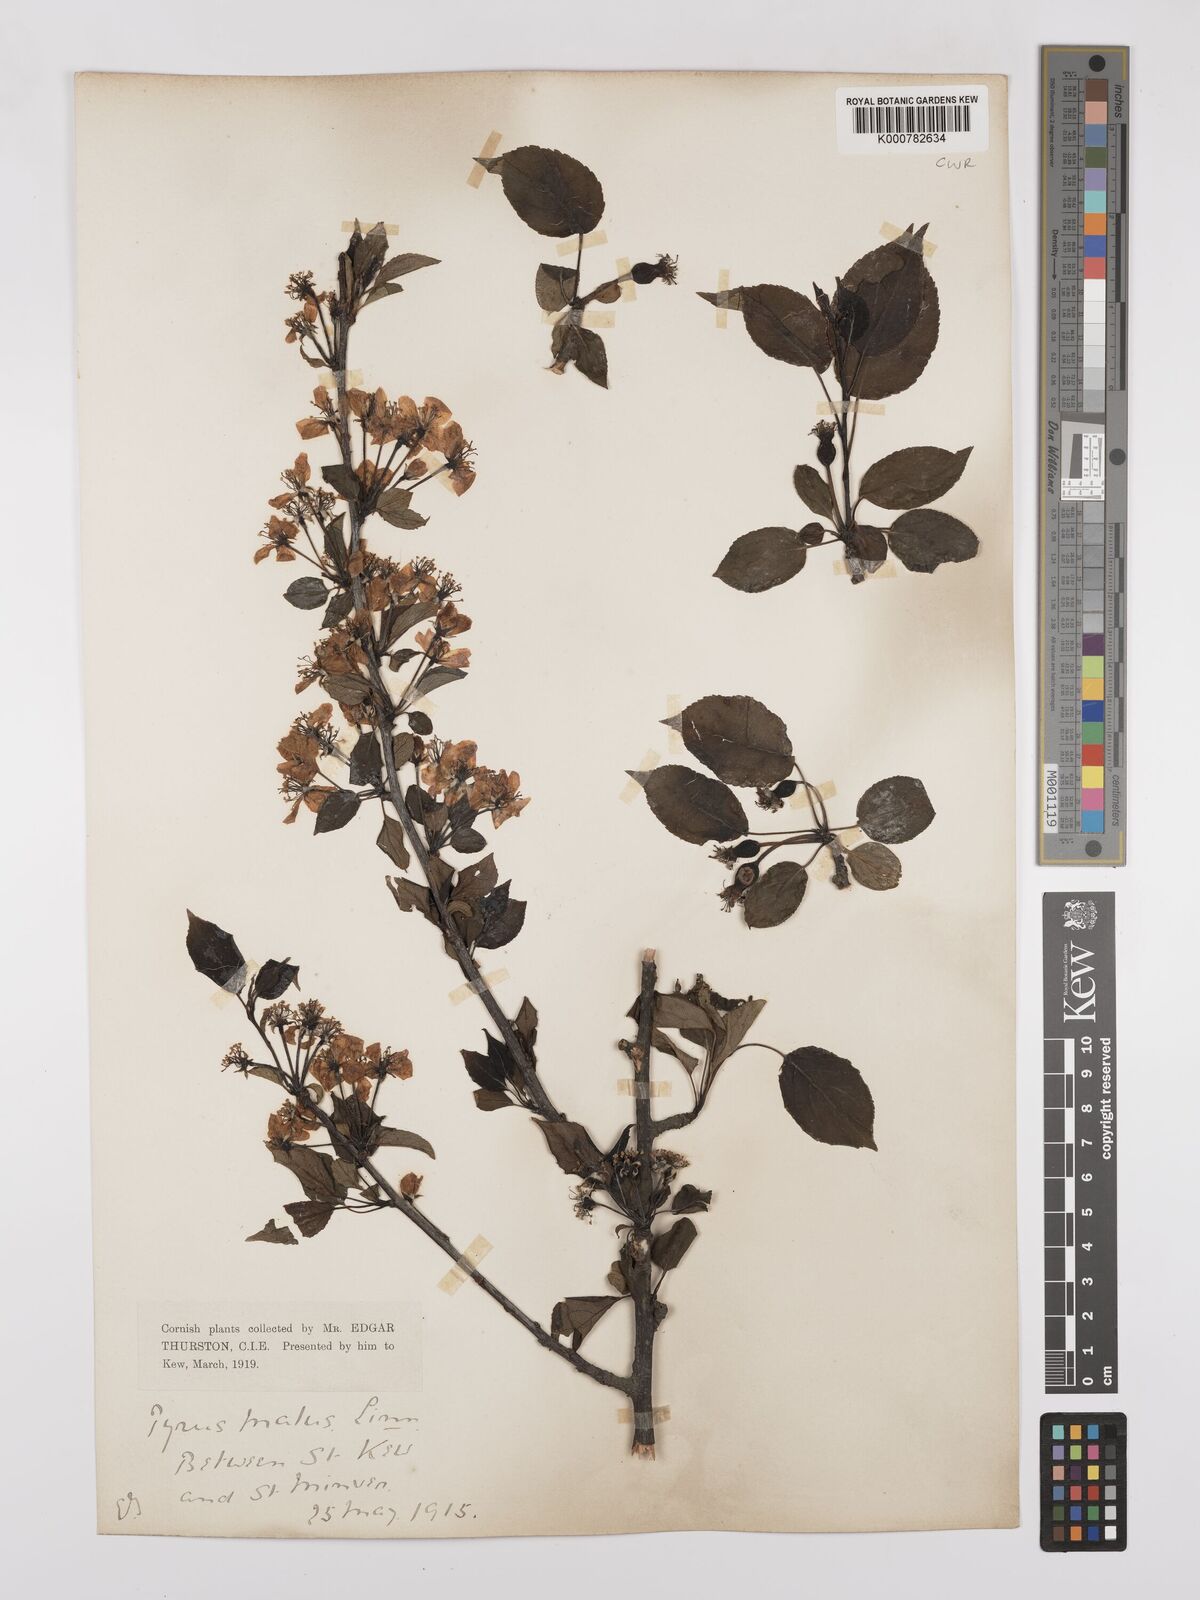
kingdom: Plantae
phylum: Tracheophyta
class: Magnoliopsida
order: Rosales
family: Rosaceae
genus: Malus
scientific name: Malus domestica
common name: Apple
